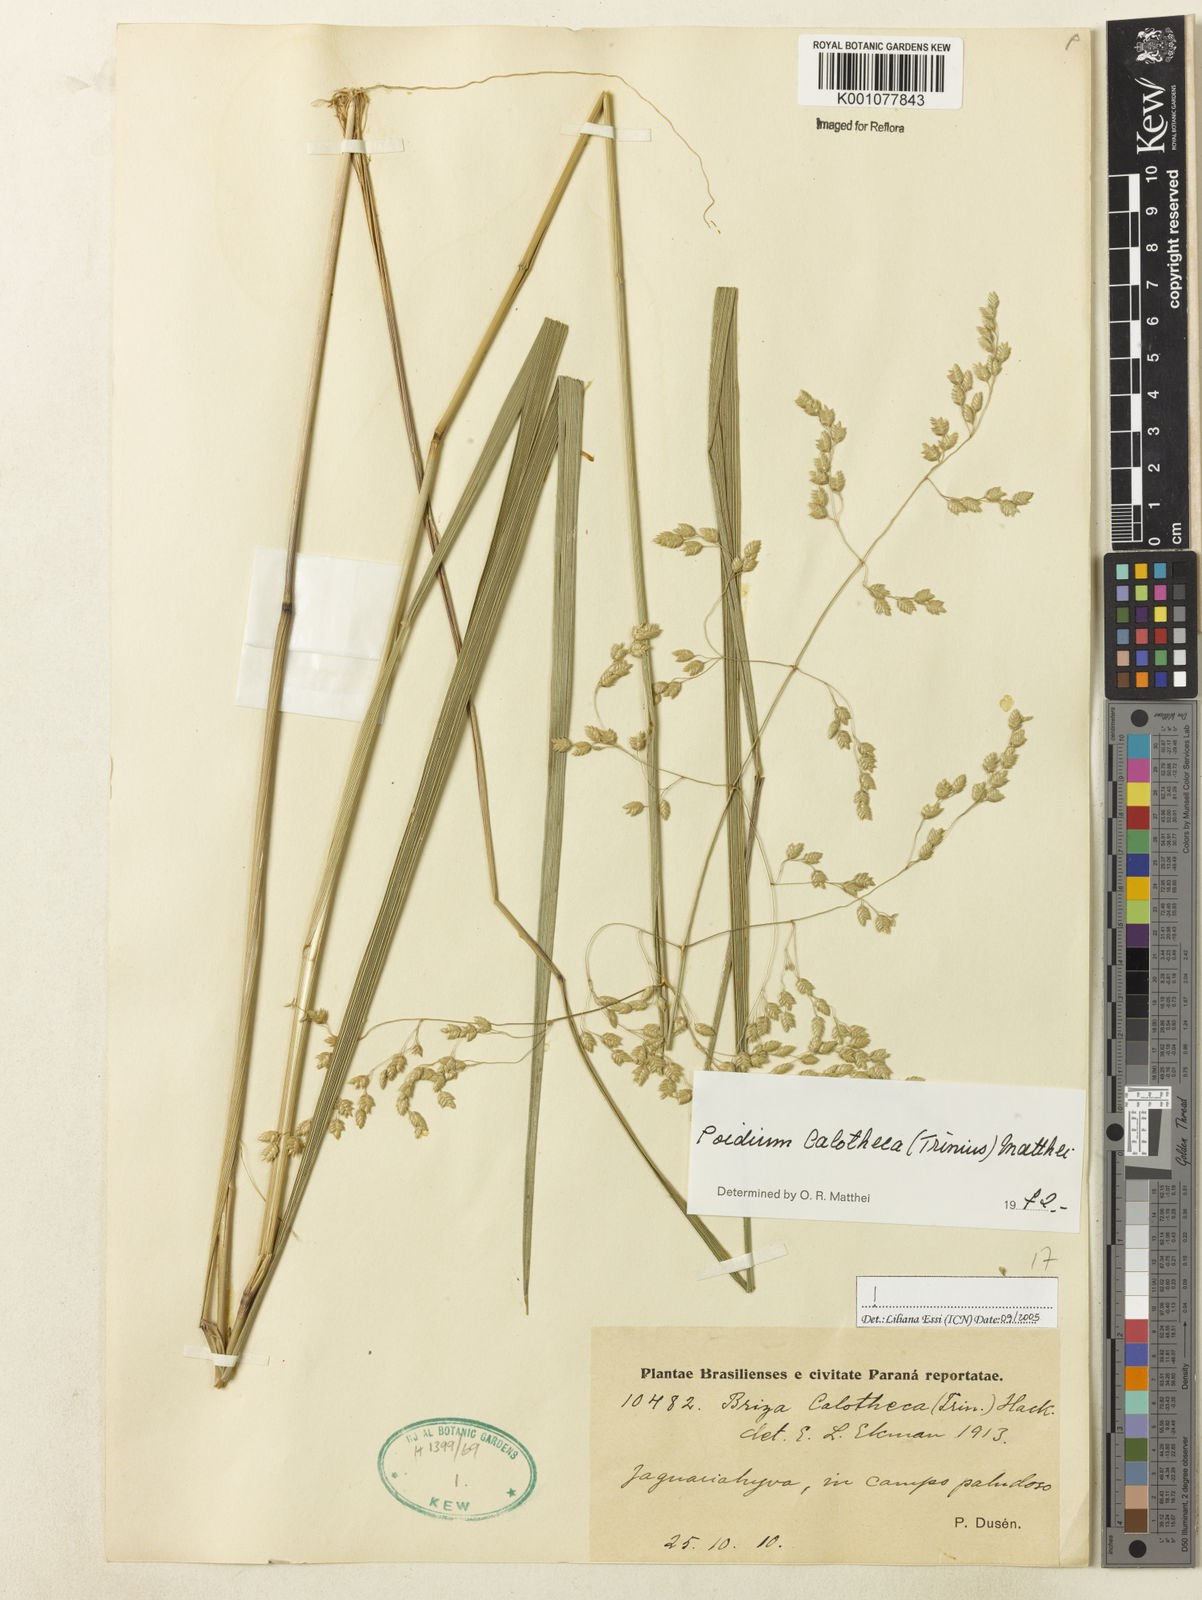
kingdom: Plantae
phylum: Tracheophyta
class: Liliopsida
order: Poales
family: Poaceae
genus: Poidium
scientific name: Poidium calotheca
